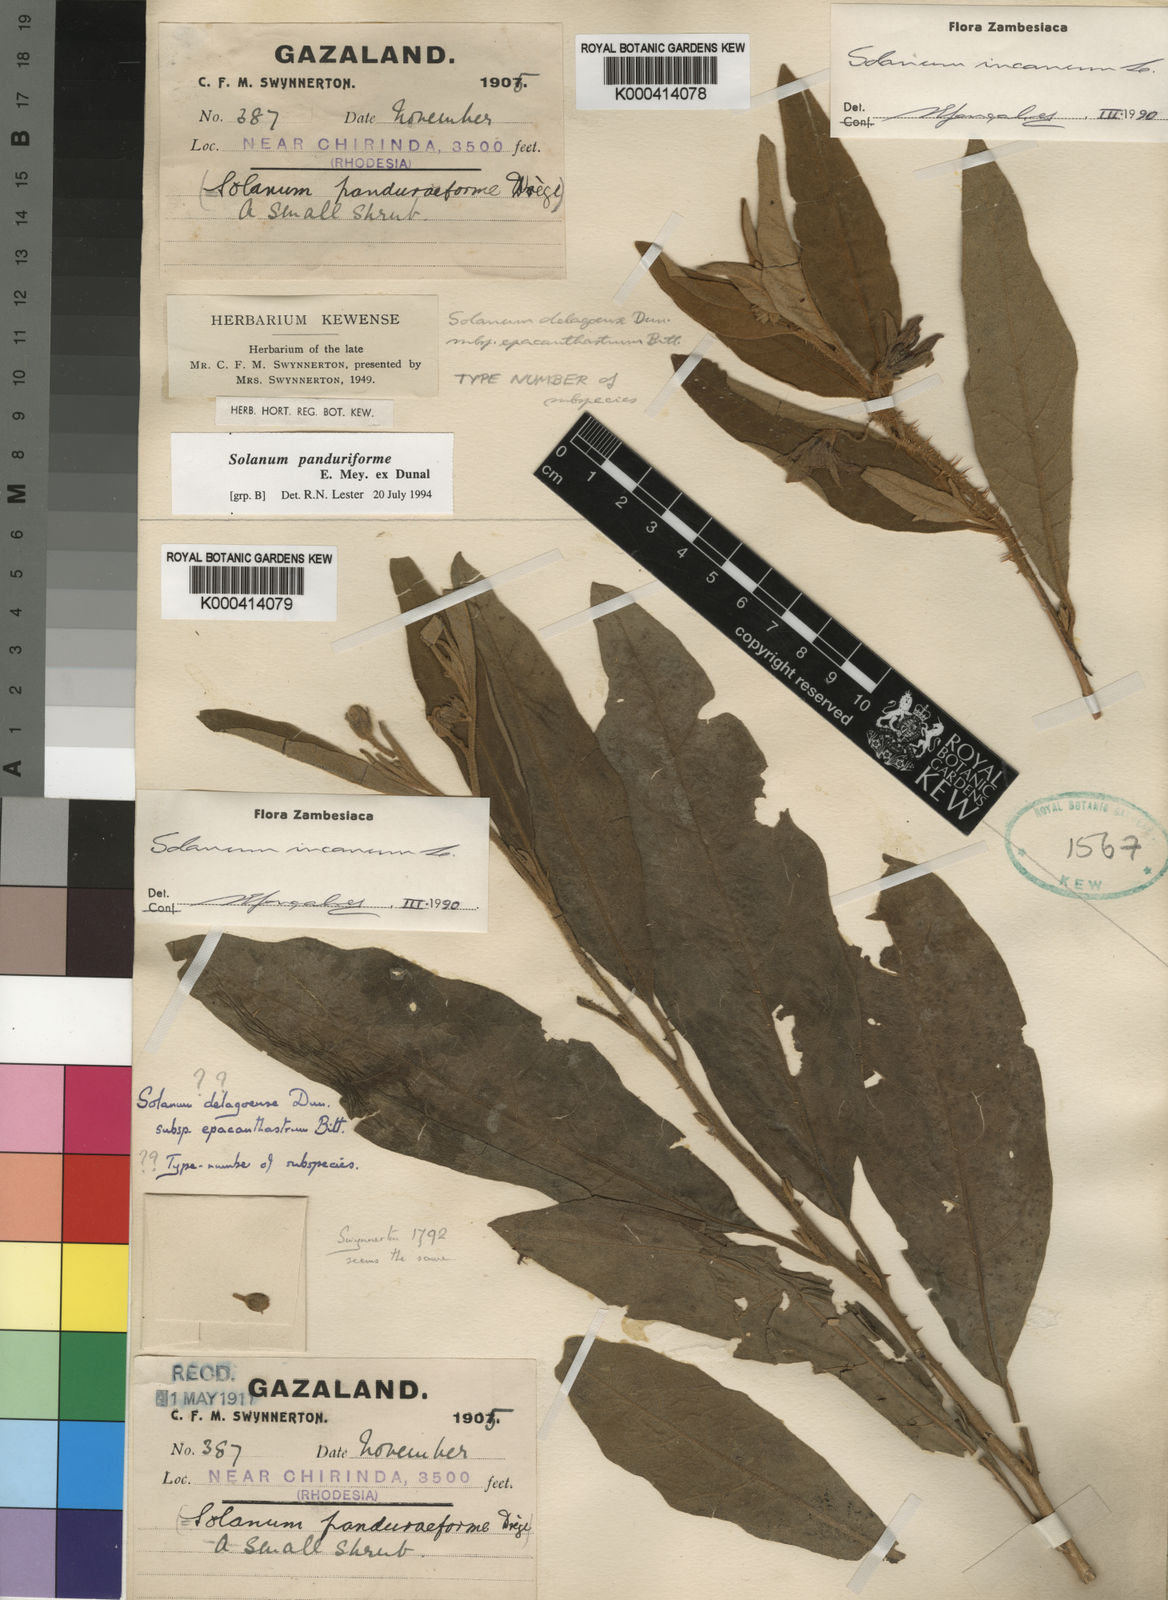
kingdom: Plantae
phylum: Tracheophyta
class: Magnoliopsida
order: Solanales
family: Solanaceae
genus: Solanum
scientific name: Solanum incanum
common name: Bitter apple
